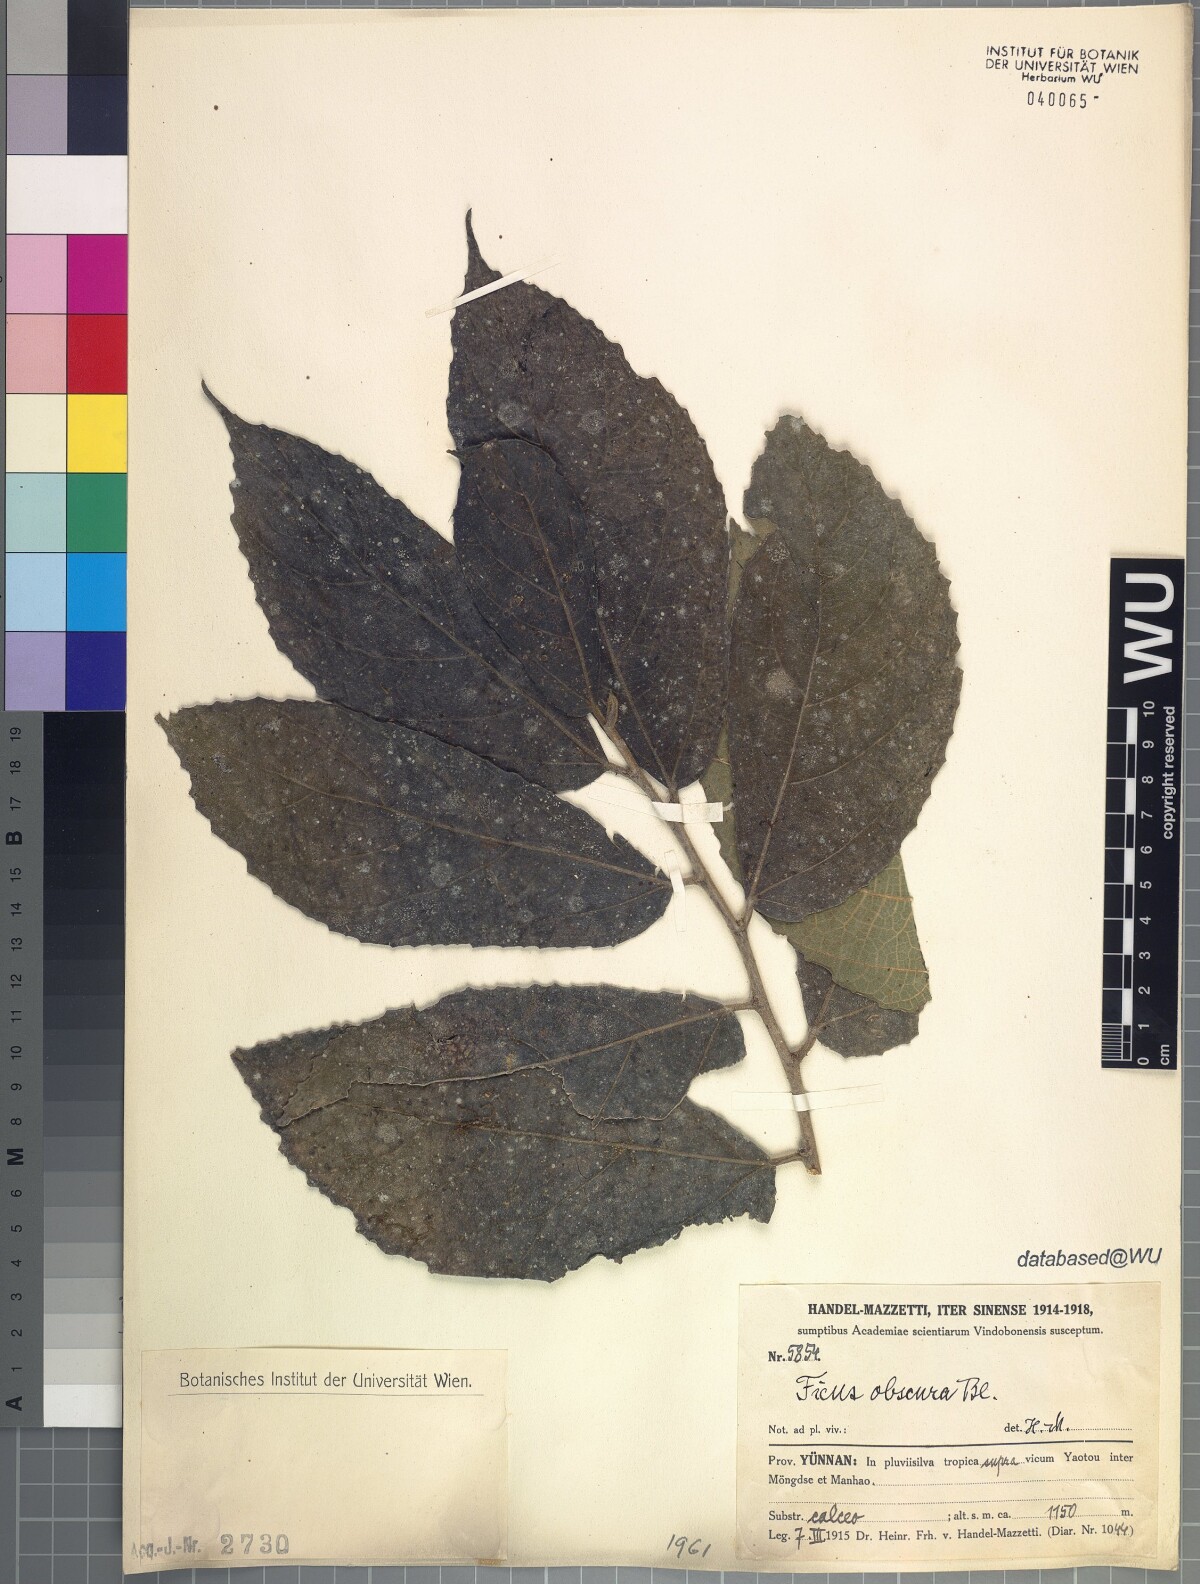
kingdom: Plantae
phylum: Tracheophyta
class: Magnoliopsida
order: Rosales
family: Moraceae
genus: Ficus
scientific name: Ficus obscura
